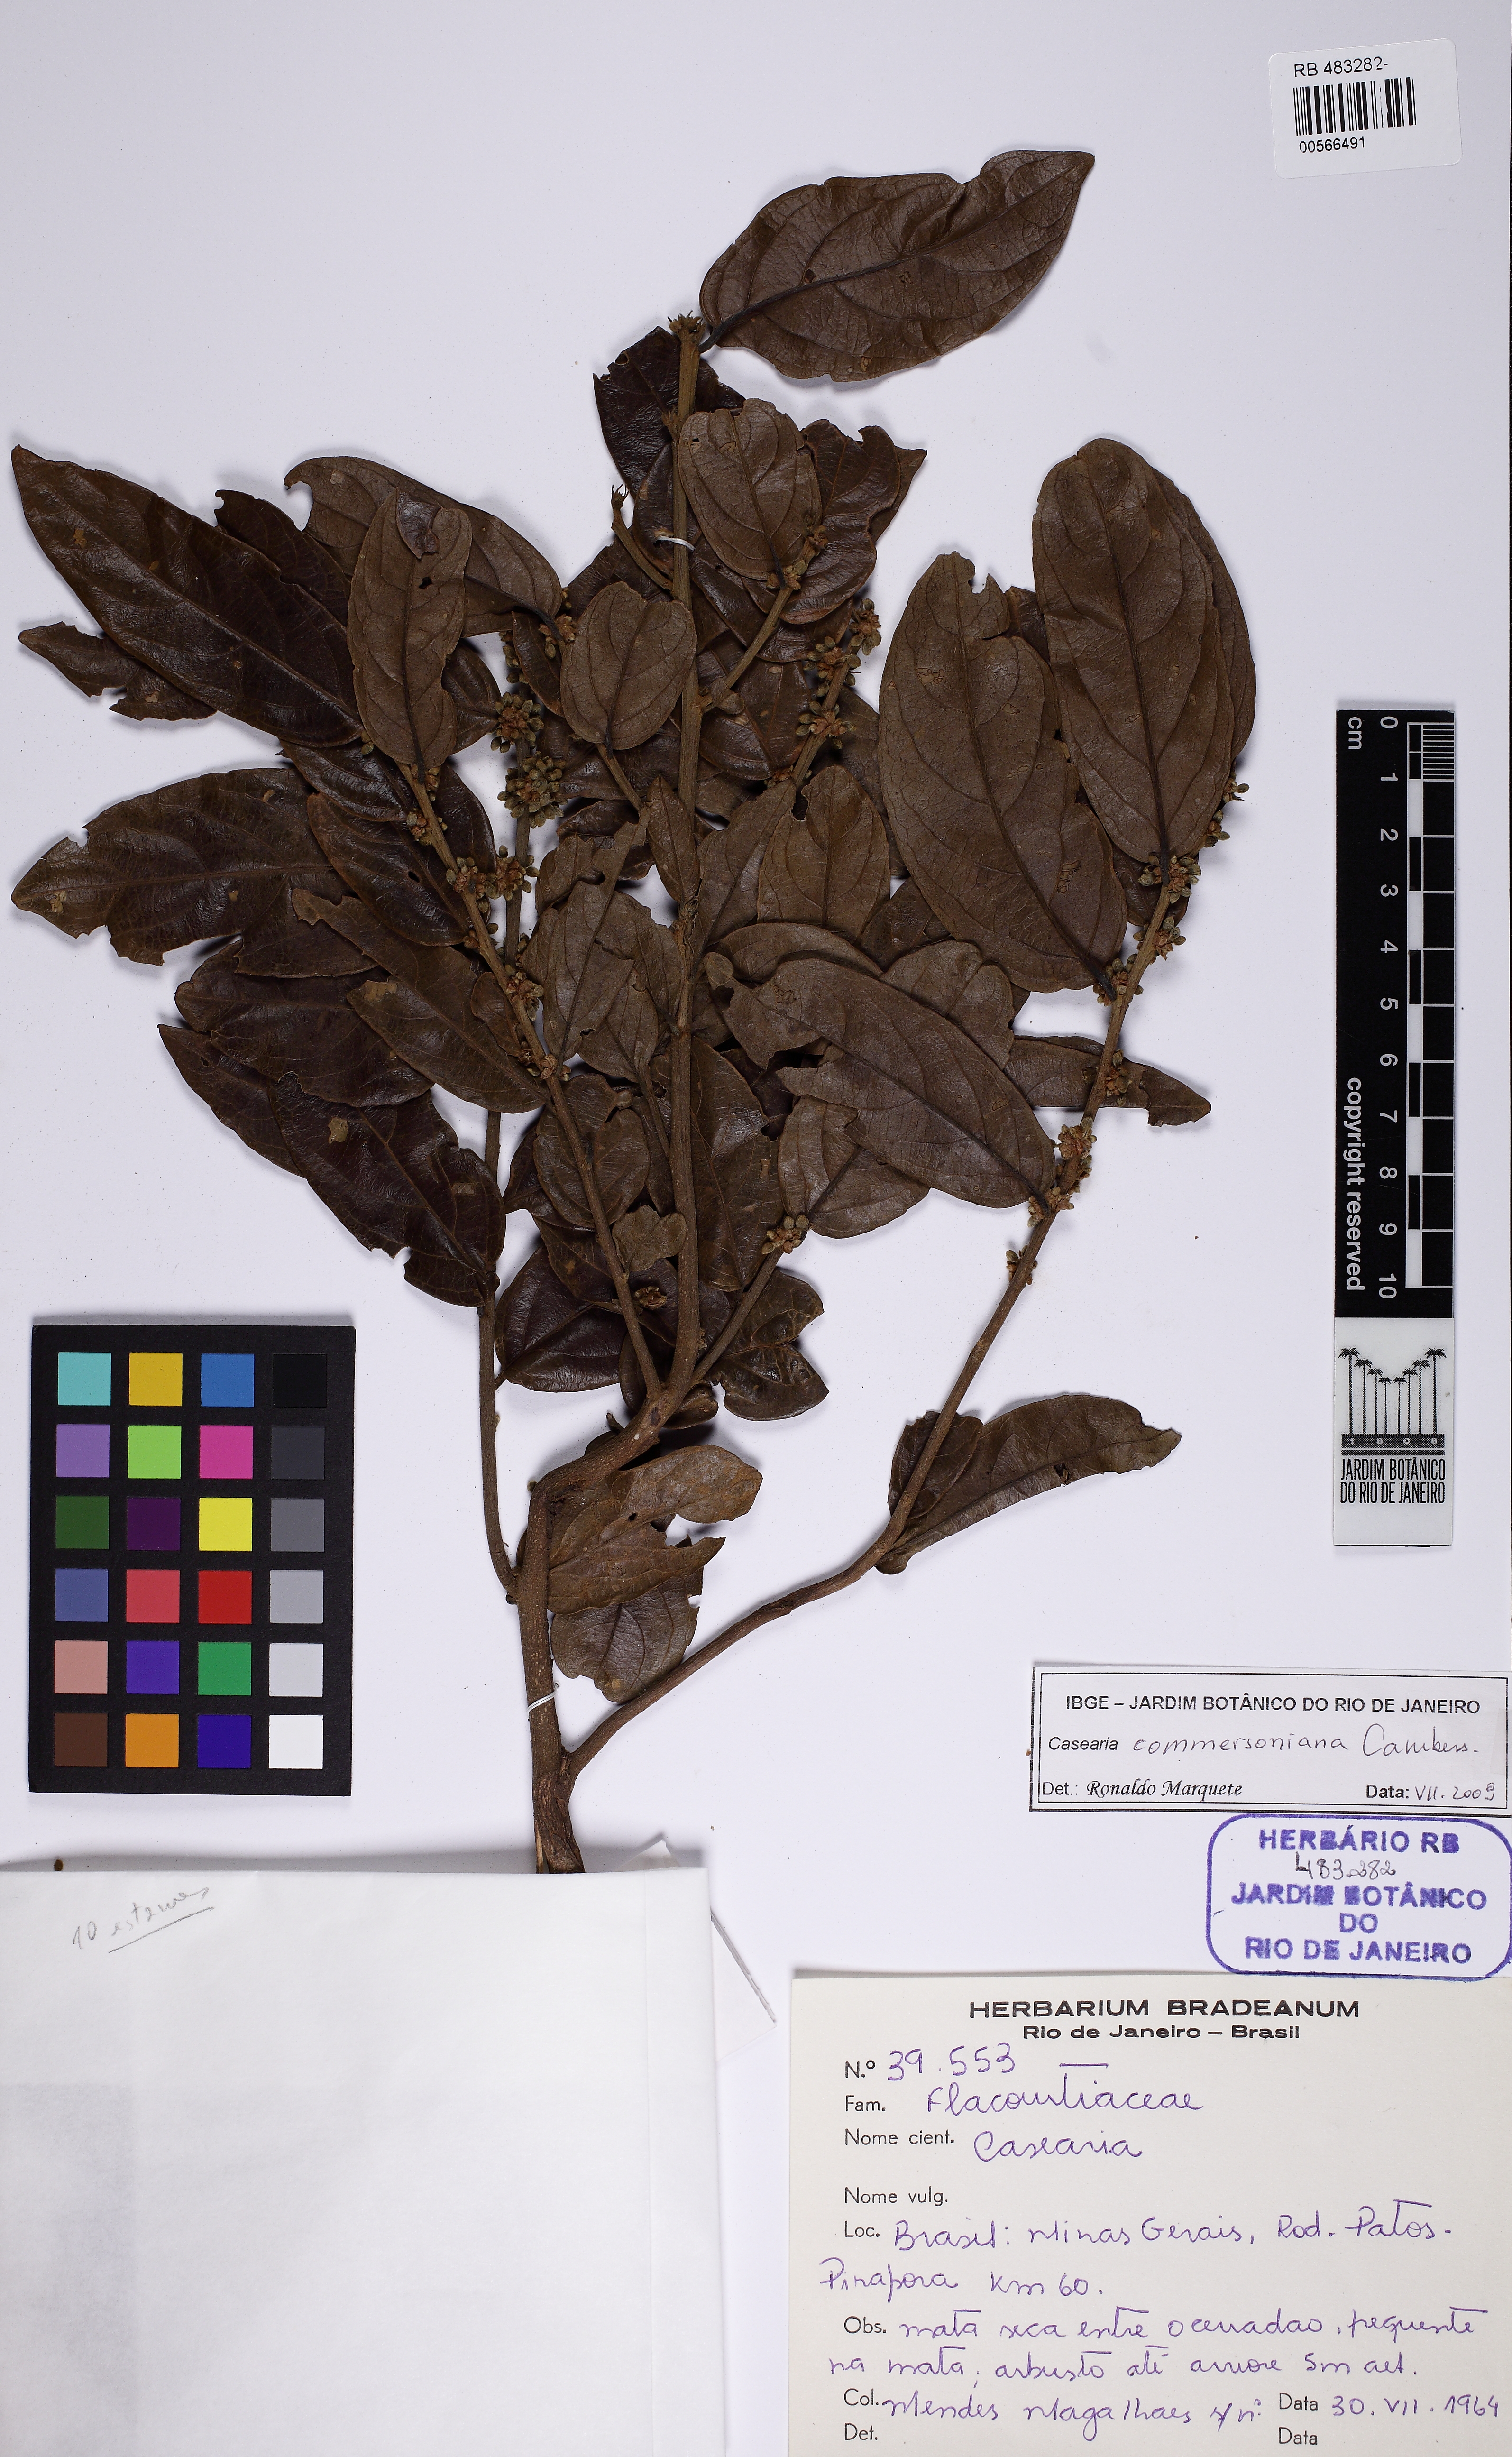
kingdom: Plantae
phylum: Tracheophyta
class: Magnoliopsida
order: Malpighiales
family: Salicaceae
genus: Piparea
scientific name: Piparea dentata
